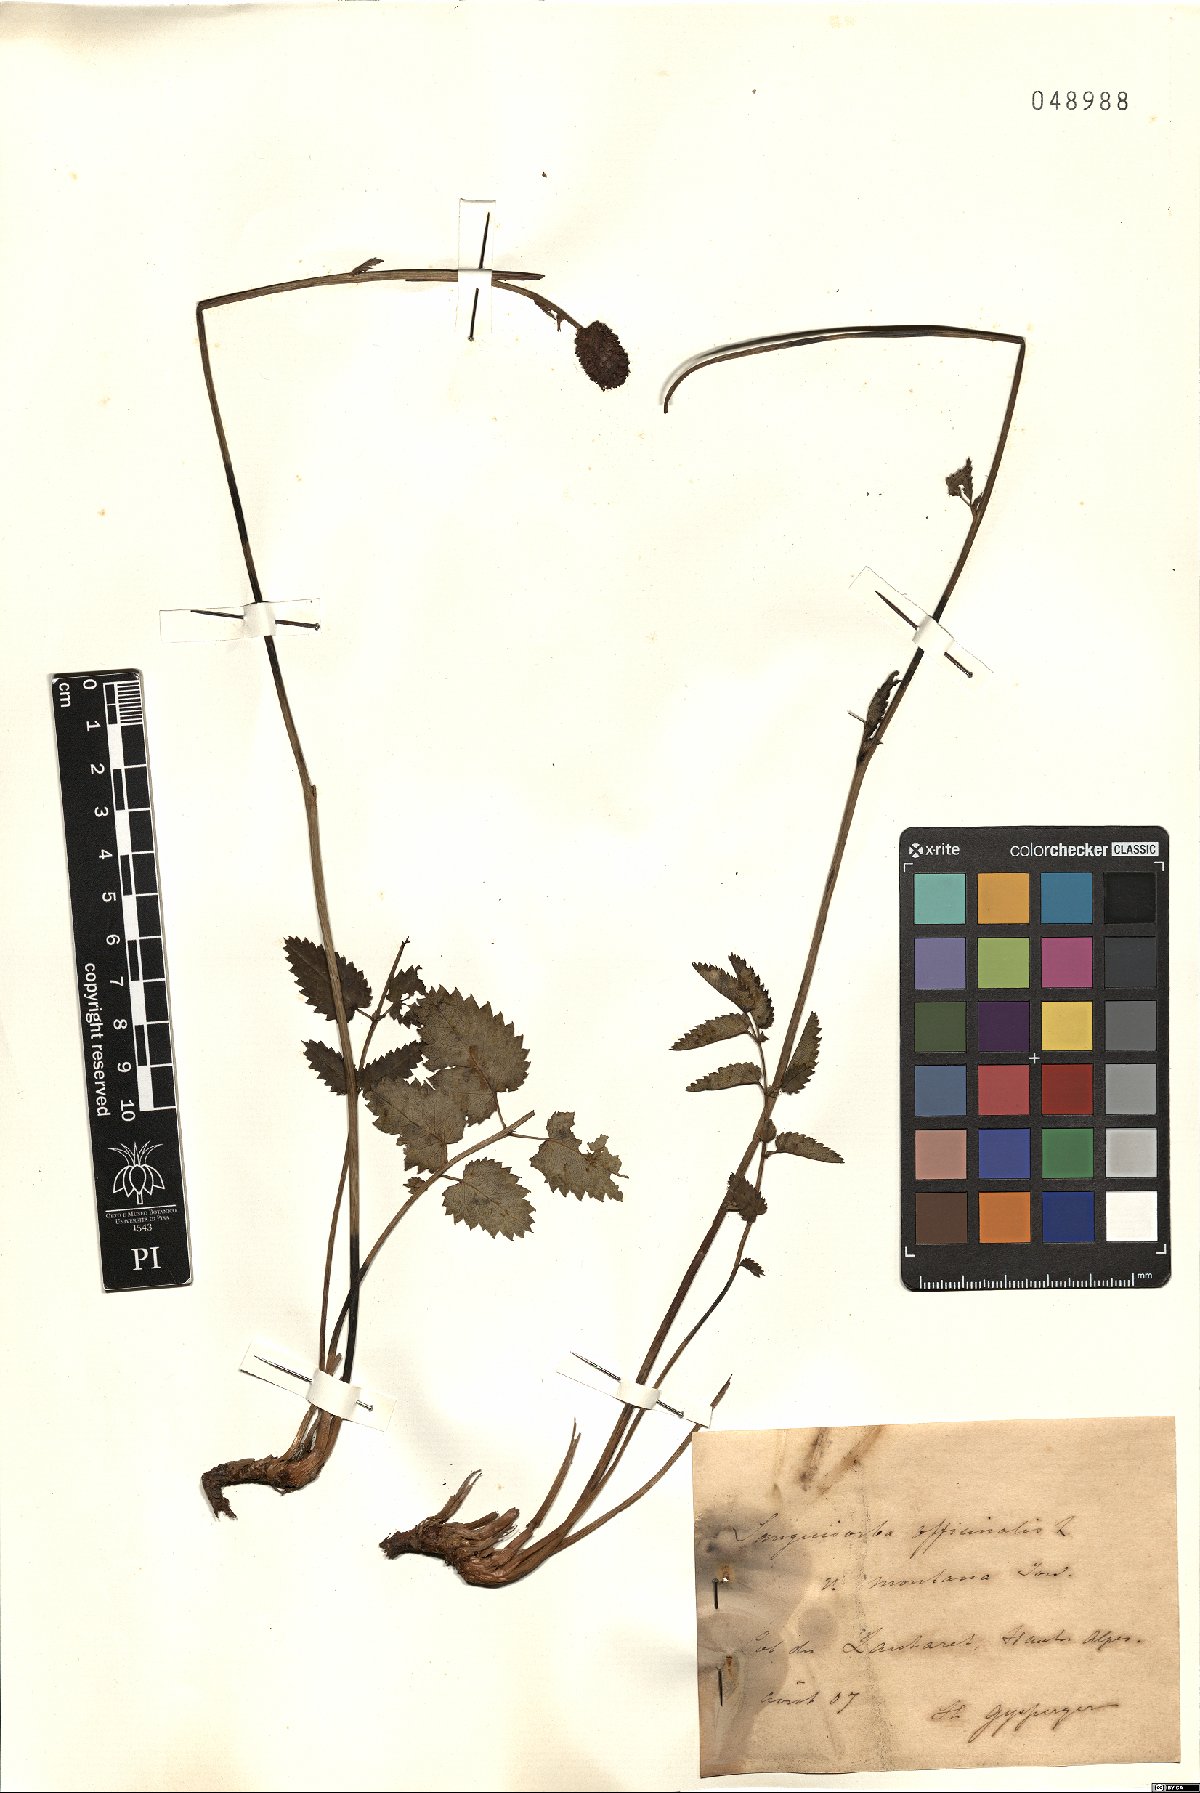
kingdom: Plantae
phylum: Tracheophyta
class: Magnoliopsida
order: Rosales
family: Rosaceae
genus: Sanguisorba
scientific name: Sanguisorba officinalis
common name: Great burnet
